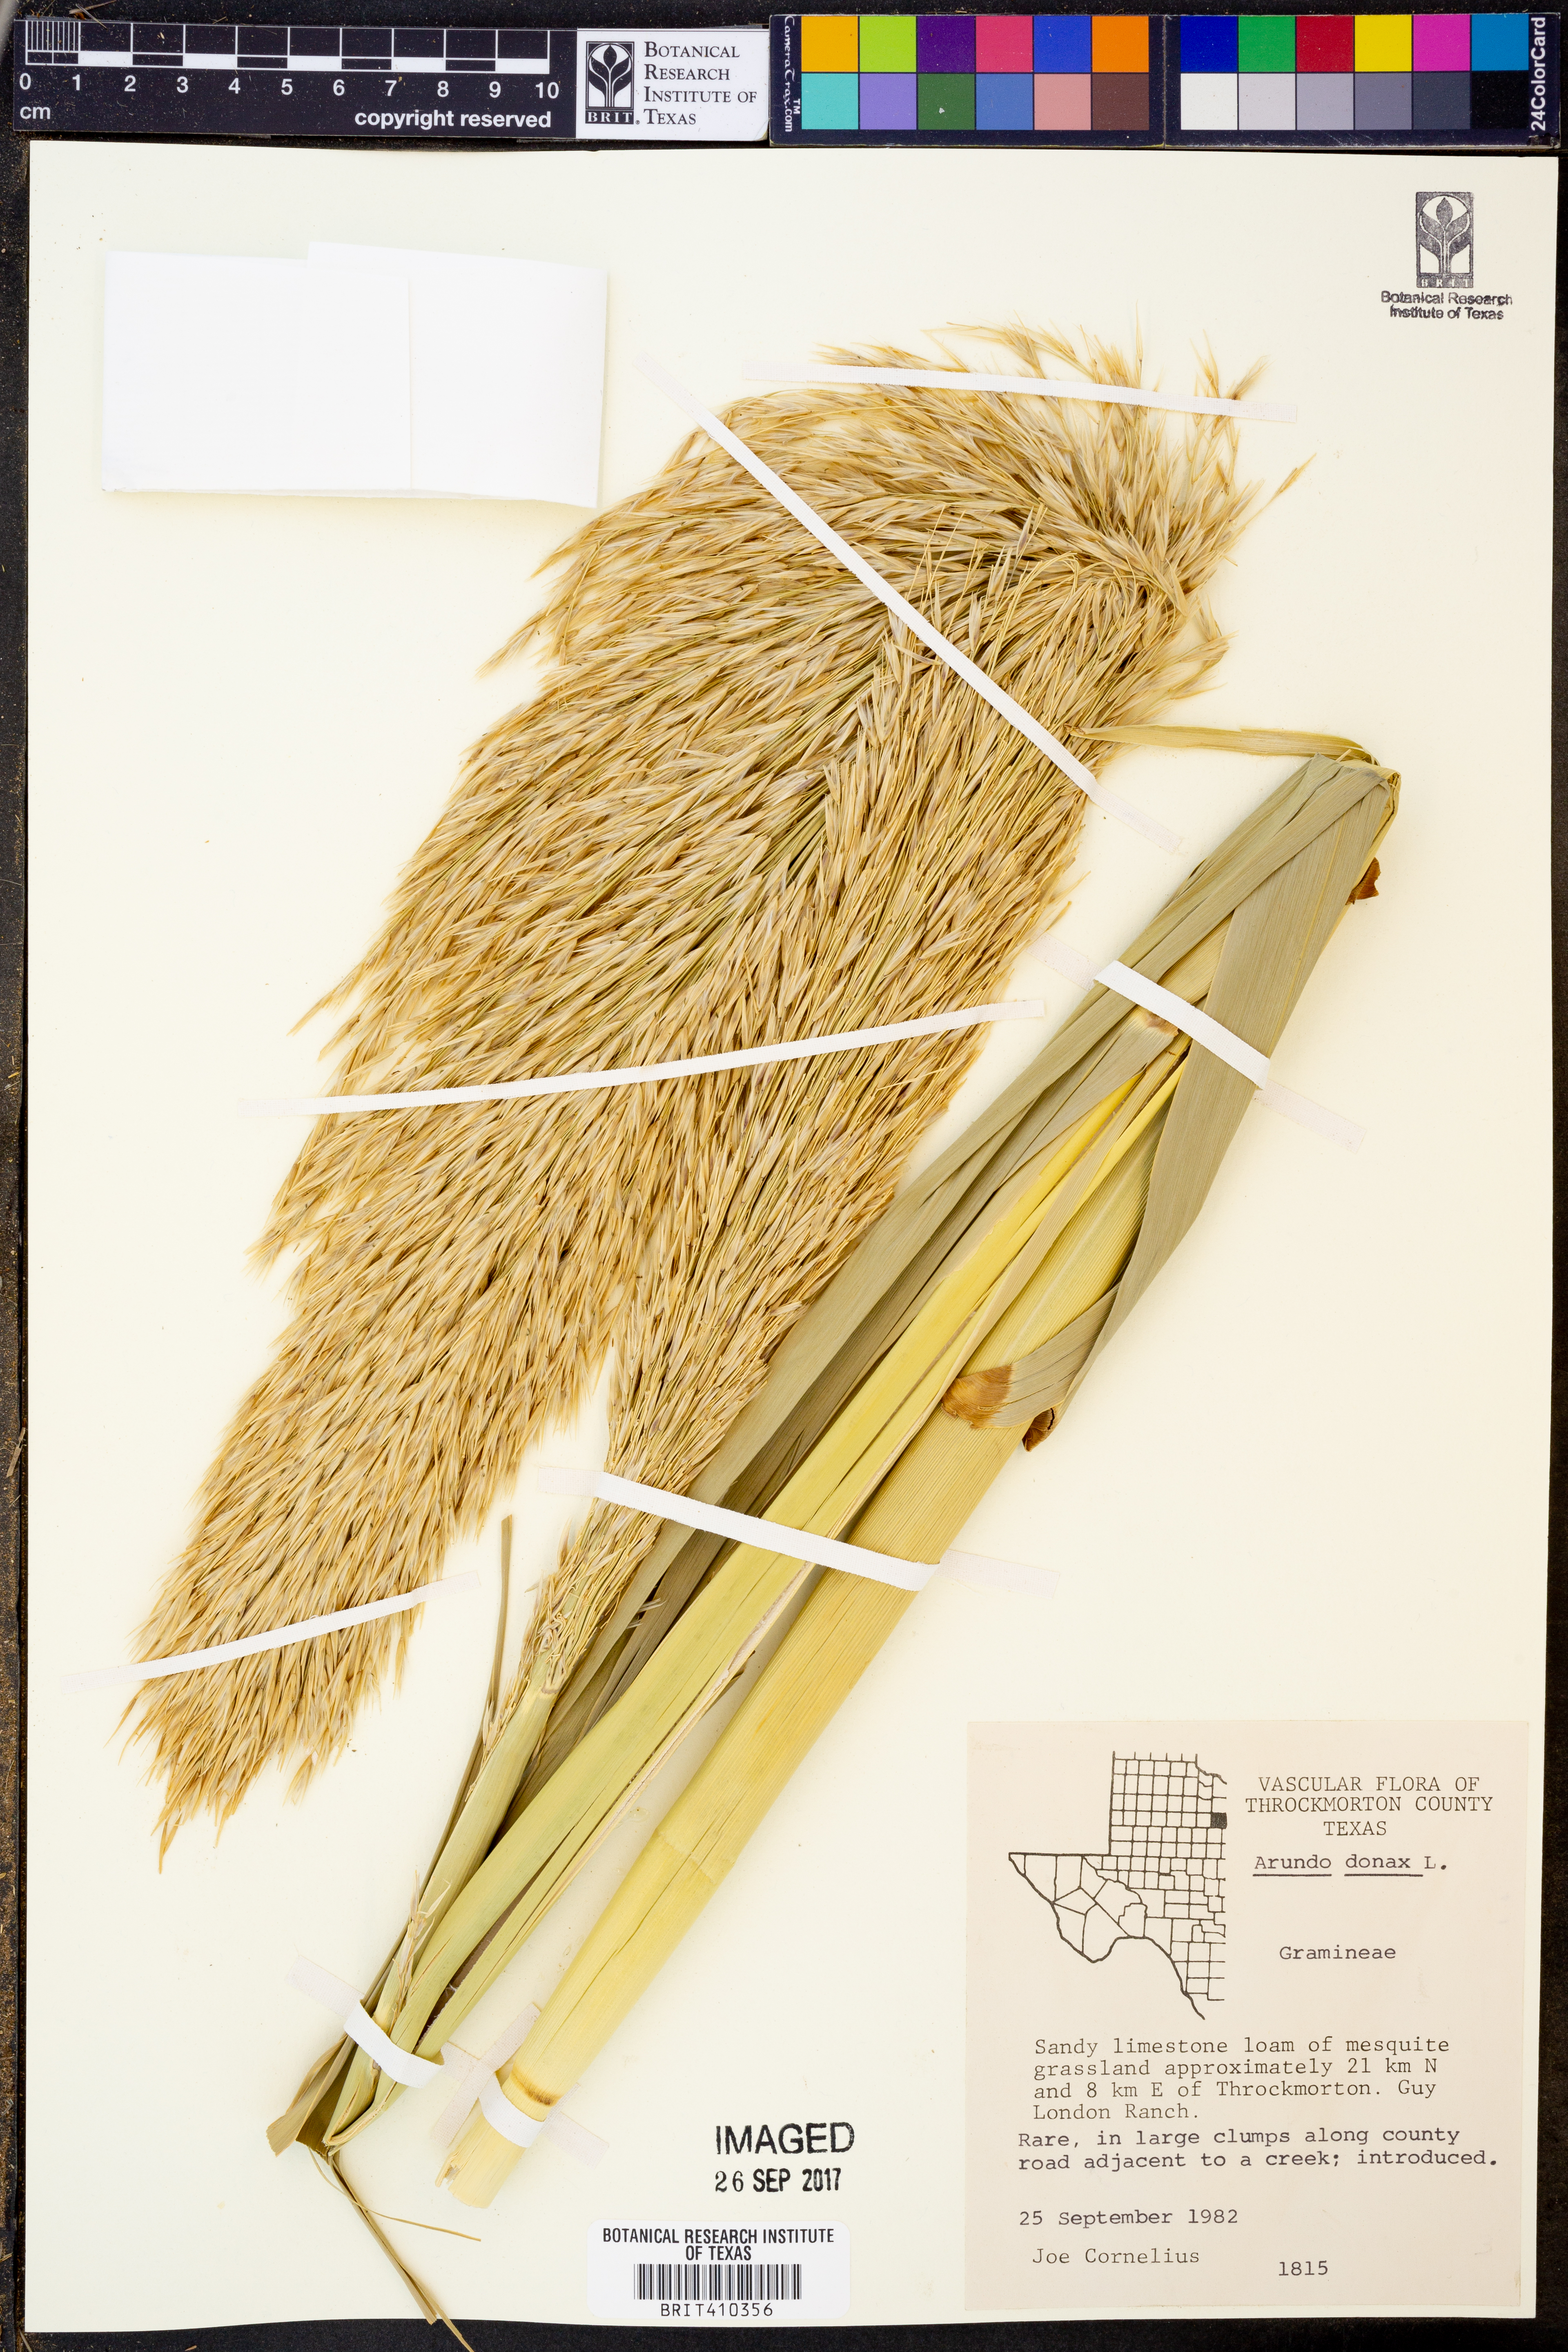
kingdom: Plantae
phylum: Tracheophyta
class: Liliopsida
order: Poales
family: Poaceae
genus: Arundo
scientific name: Arundo donax
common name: Giant reed
